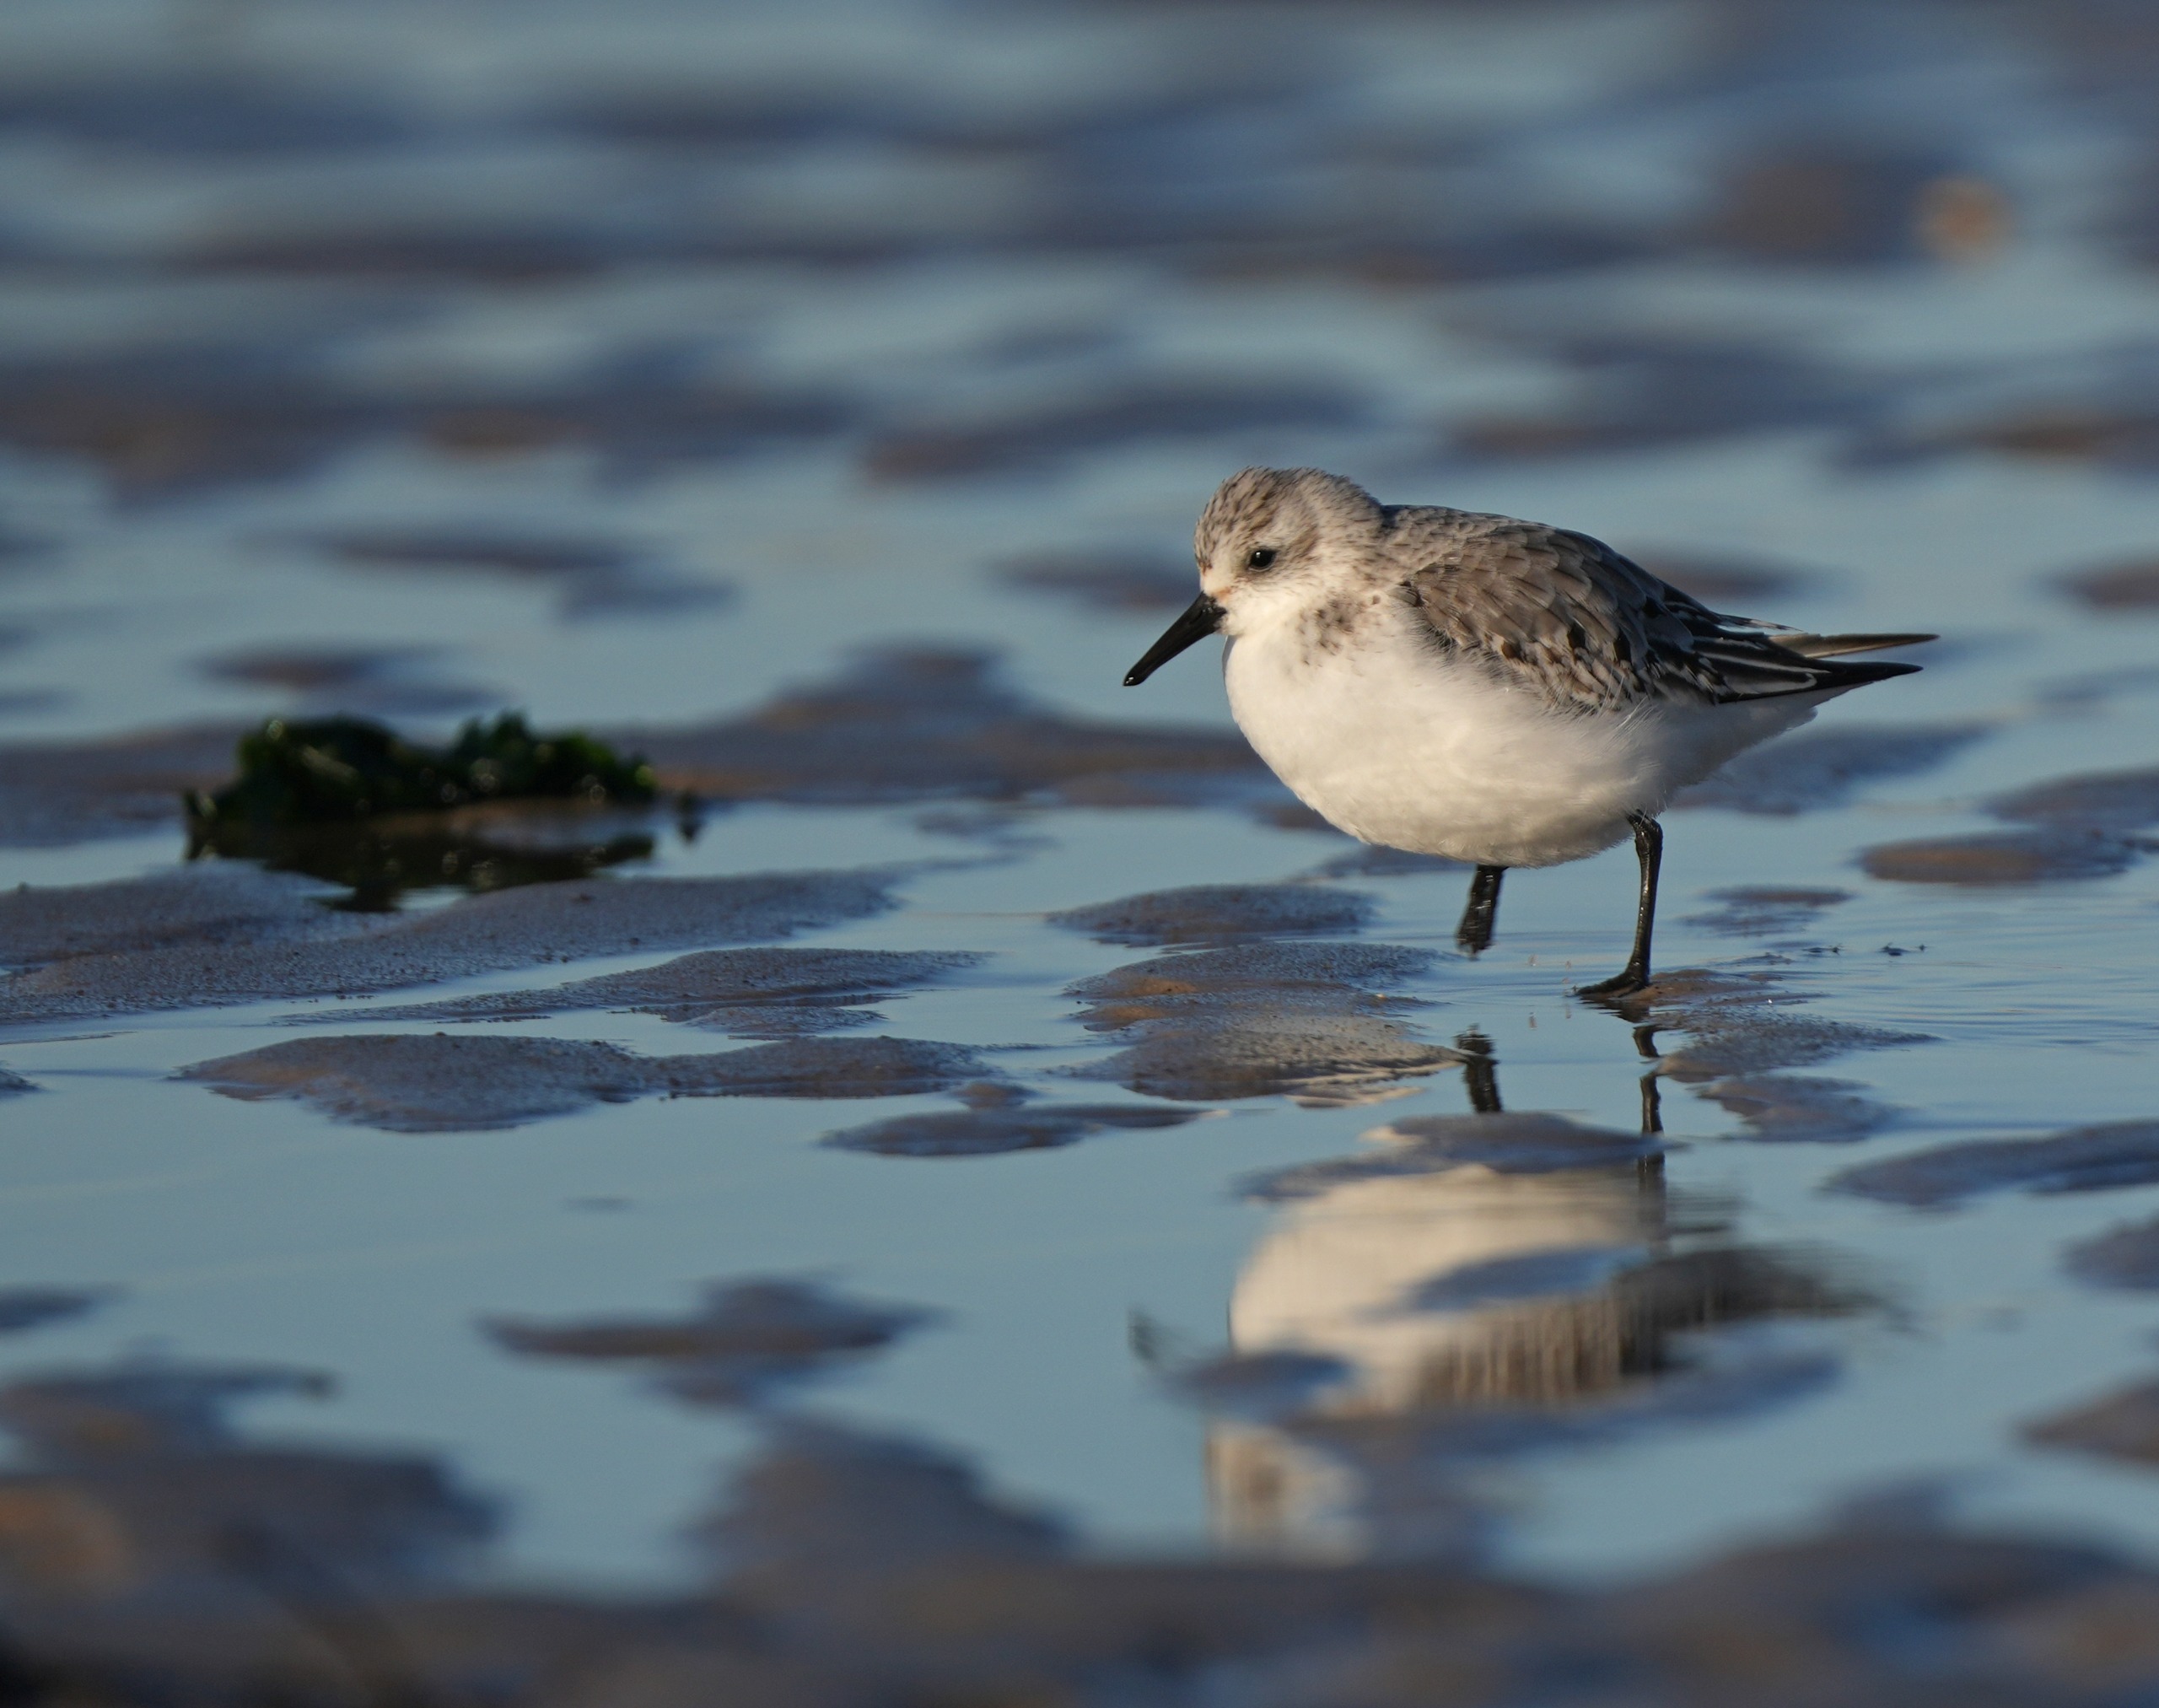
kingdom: Animalia
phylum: Chordata
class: Aves
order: Charadriiformes
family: Scolopacidae
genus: Calidris
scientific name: Calidris alba
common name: Sandløber
